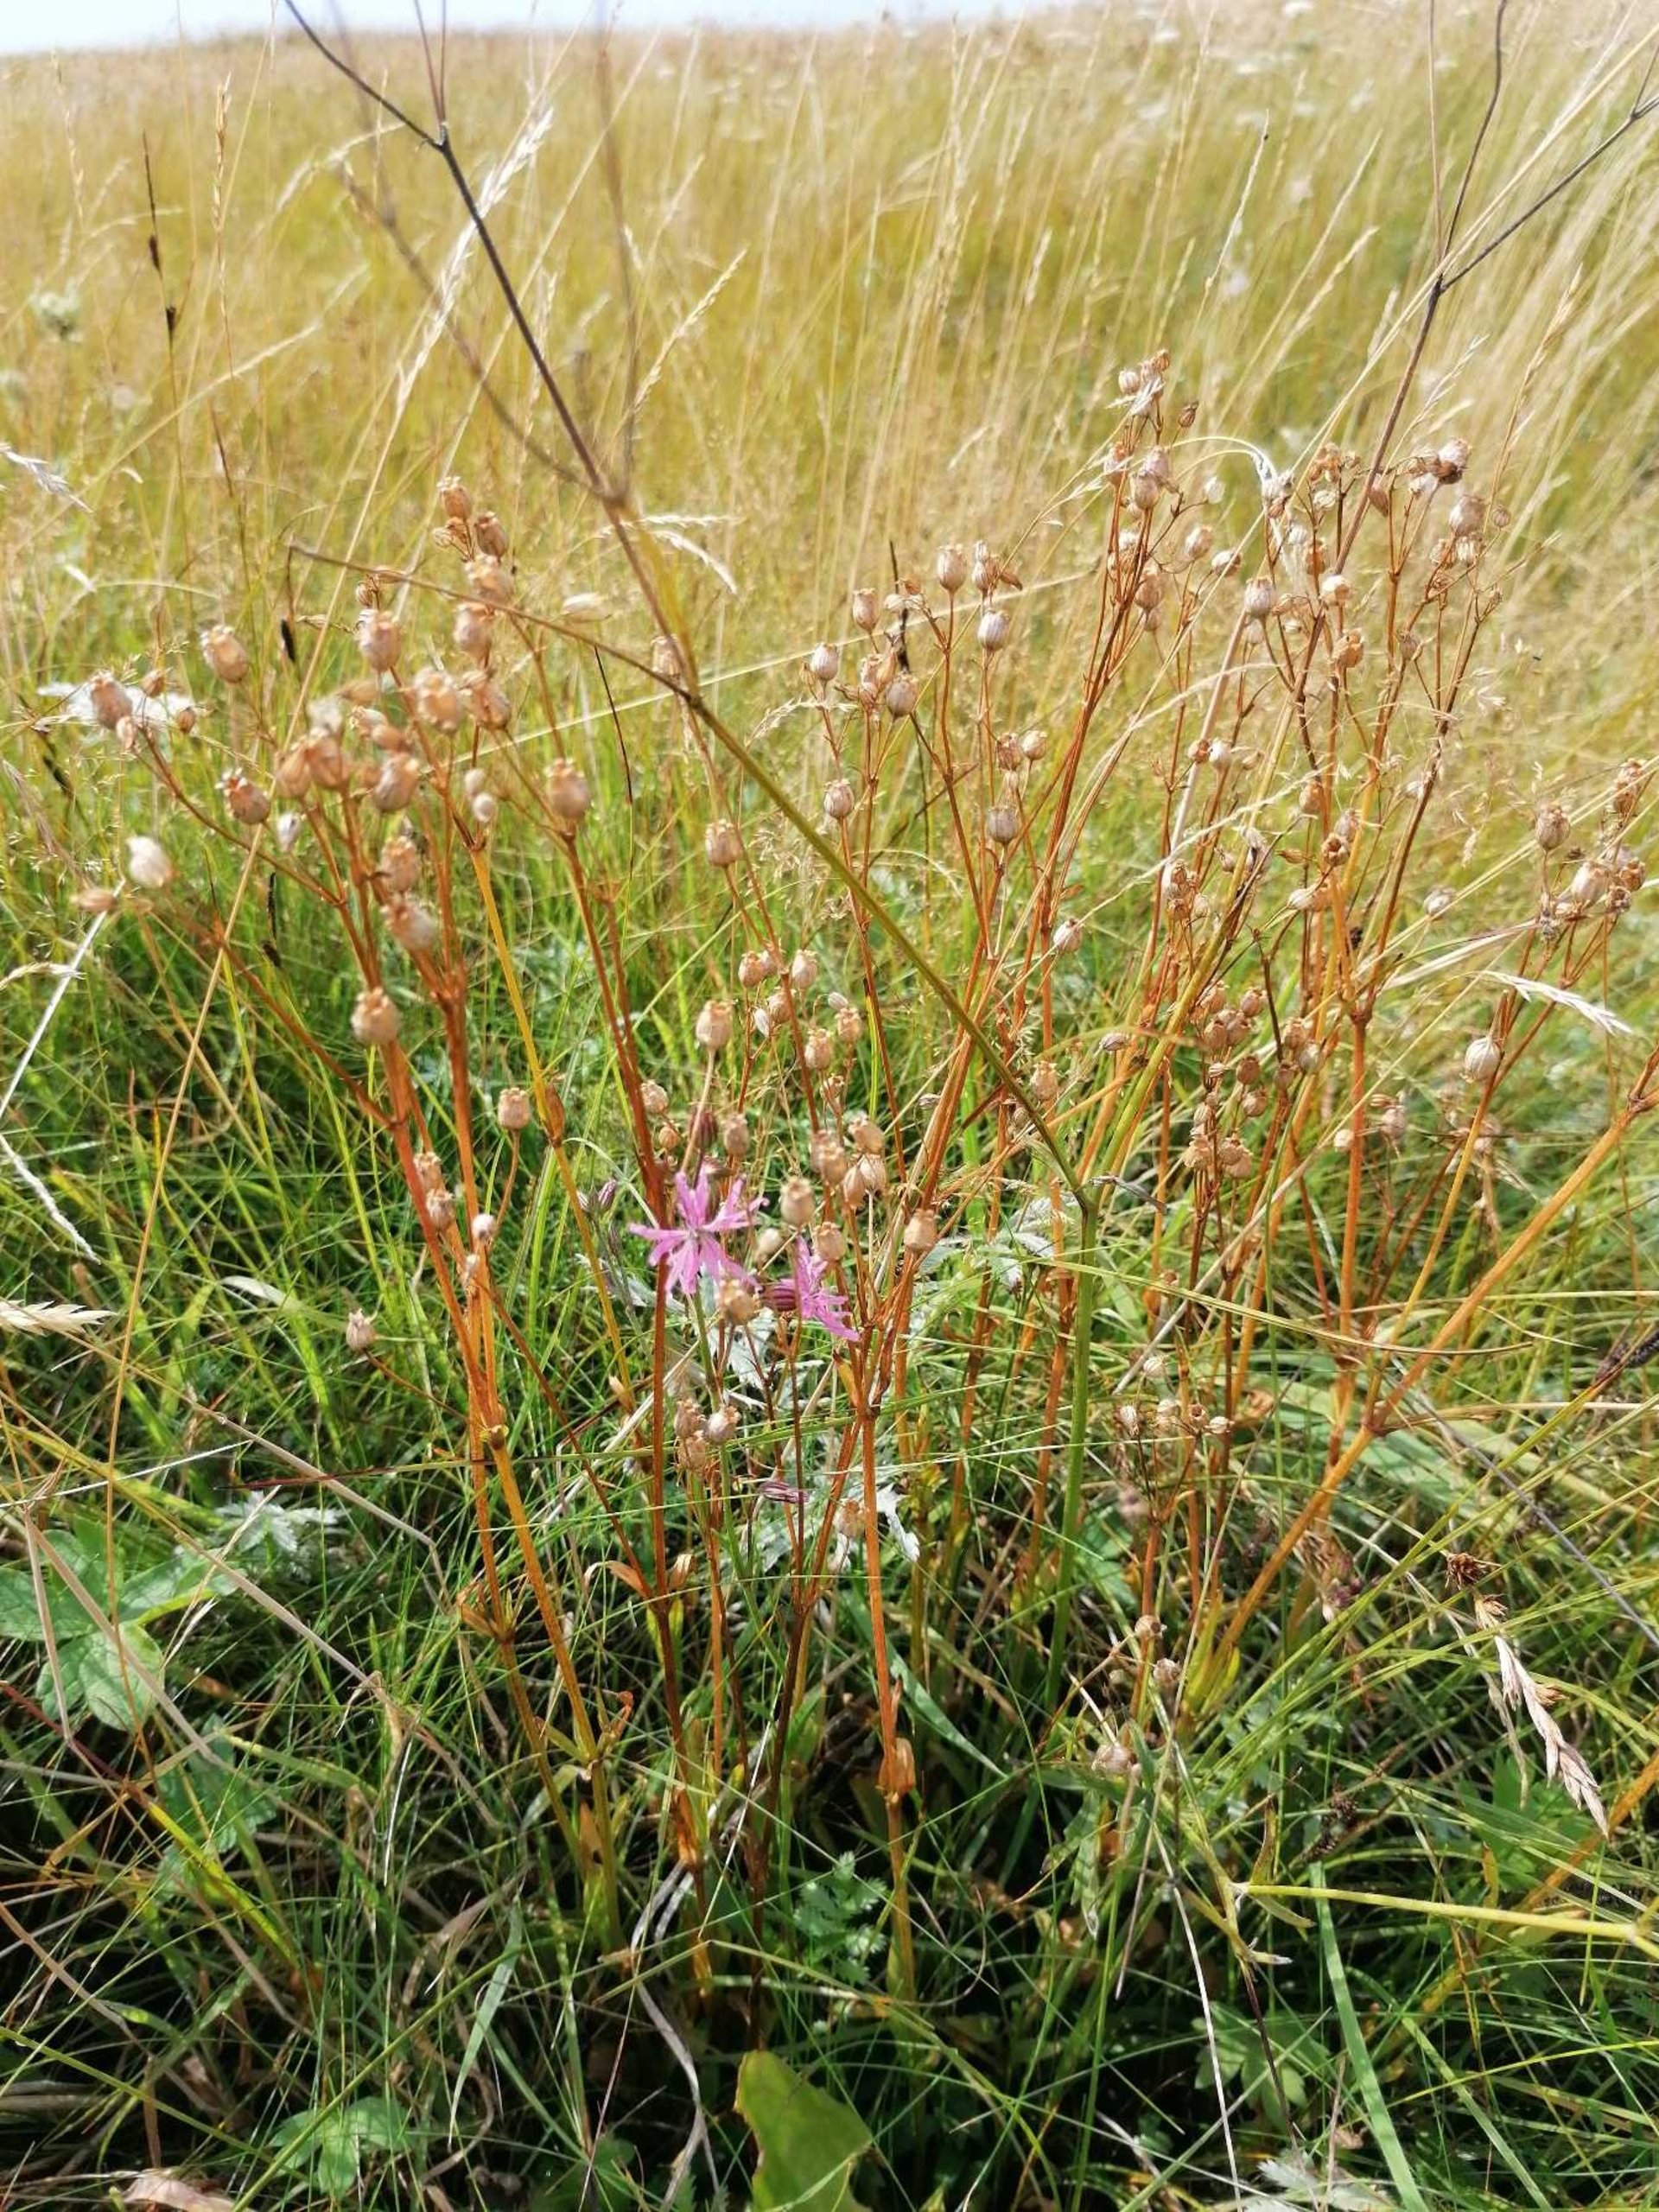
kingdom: Plantae
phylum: Tracheophyta
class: Magnoliopsida
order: Caryophyllales
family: Caryophyllaceae
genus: Silene
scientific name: Silene flos-cuculi
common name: Trævlekrone
